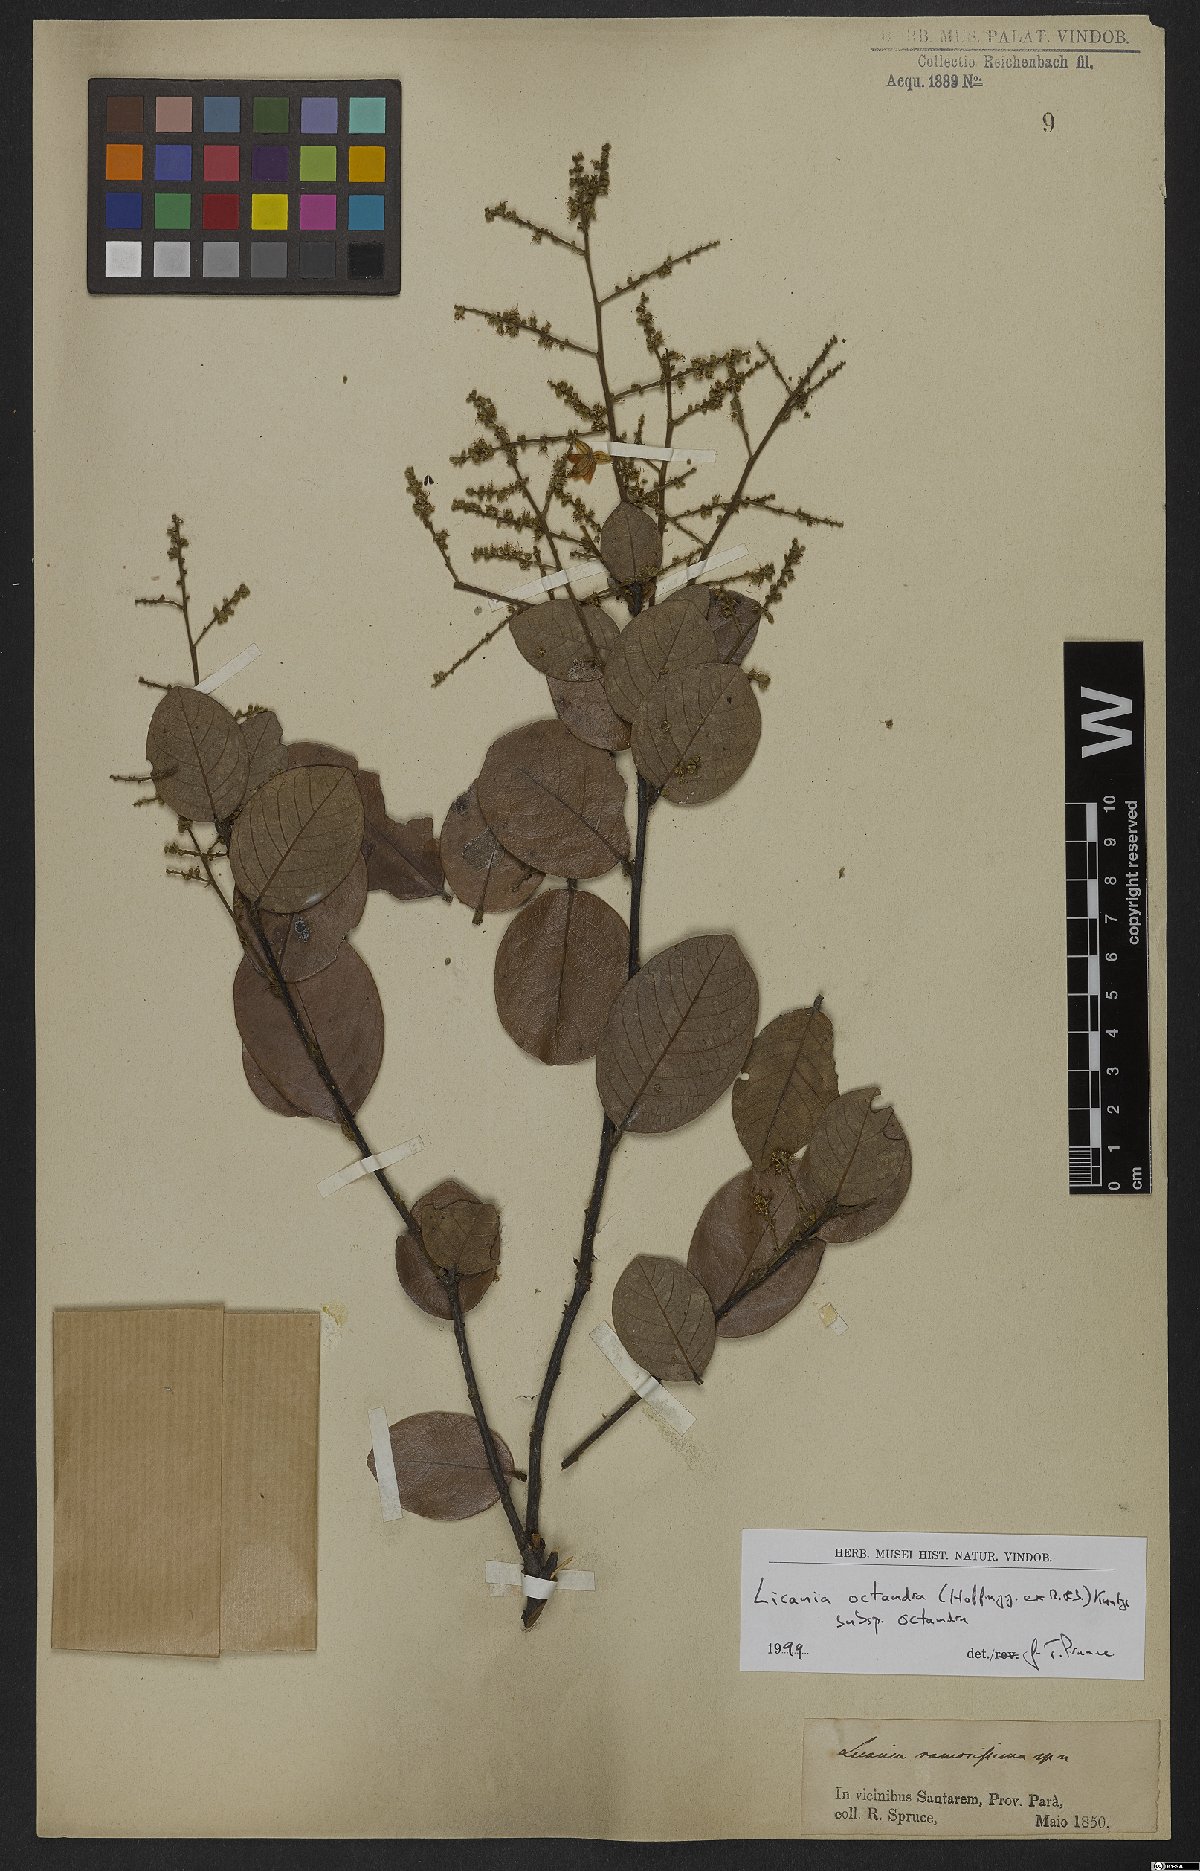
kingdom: Plantae
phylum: Tracheophyta
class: Magnoliopsida
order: Malpighiales
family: Chrysobalanaceae
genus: Leptobalanus
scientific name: Leptobalanus octandrus
